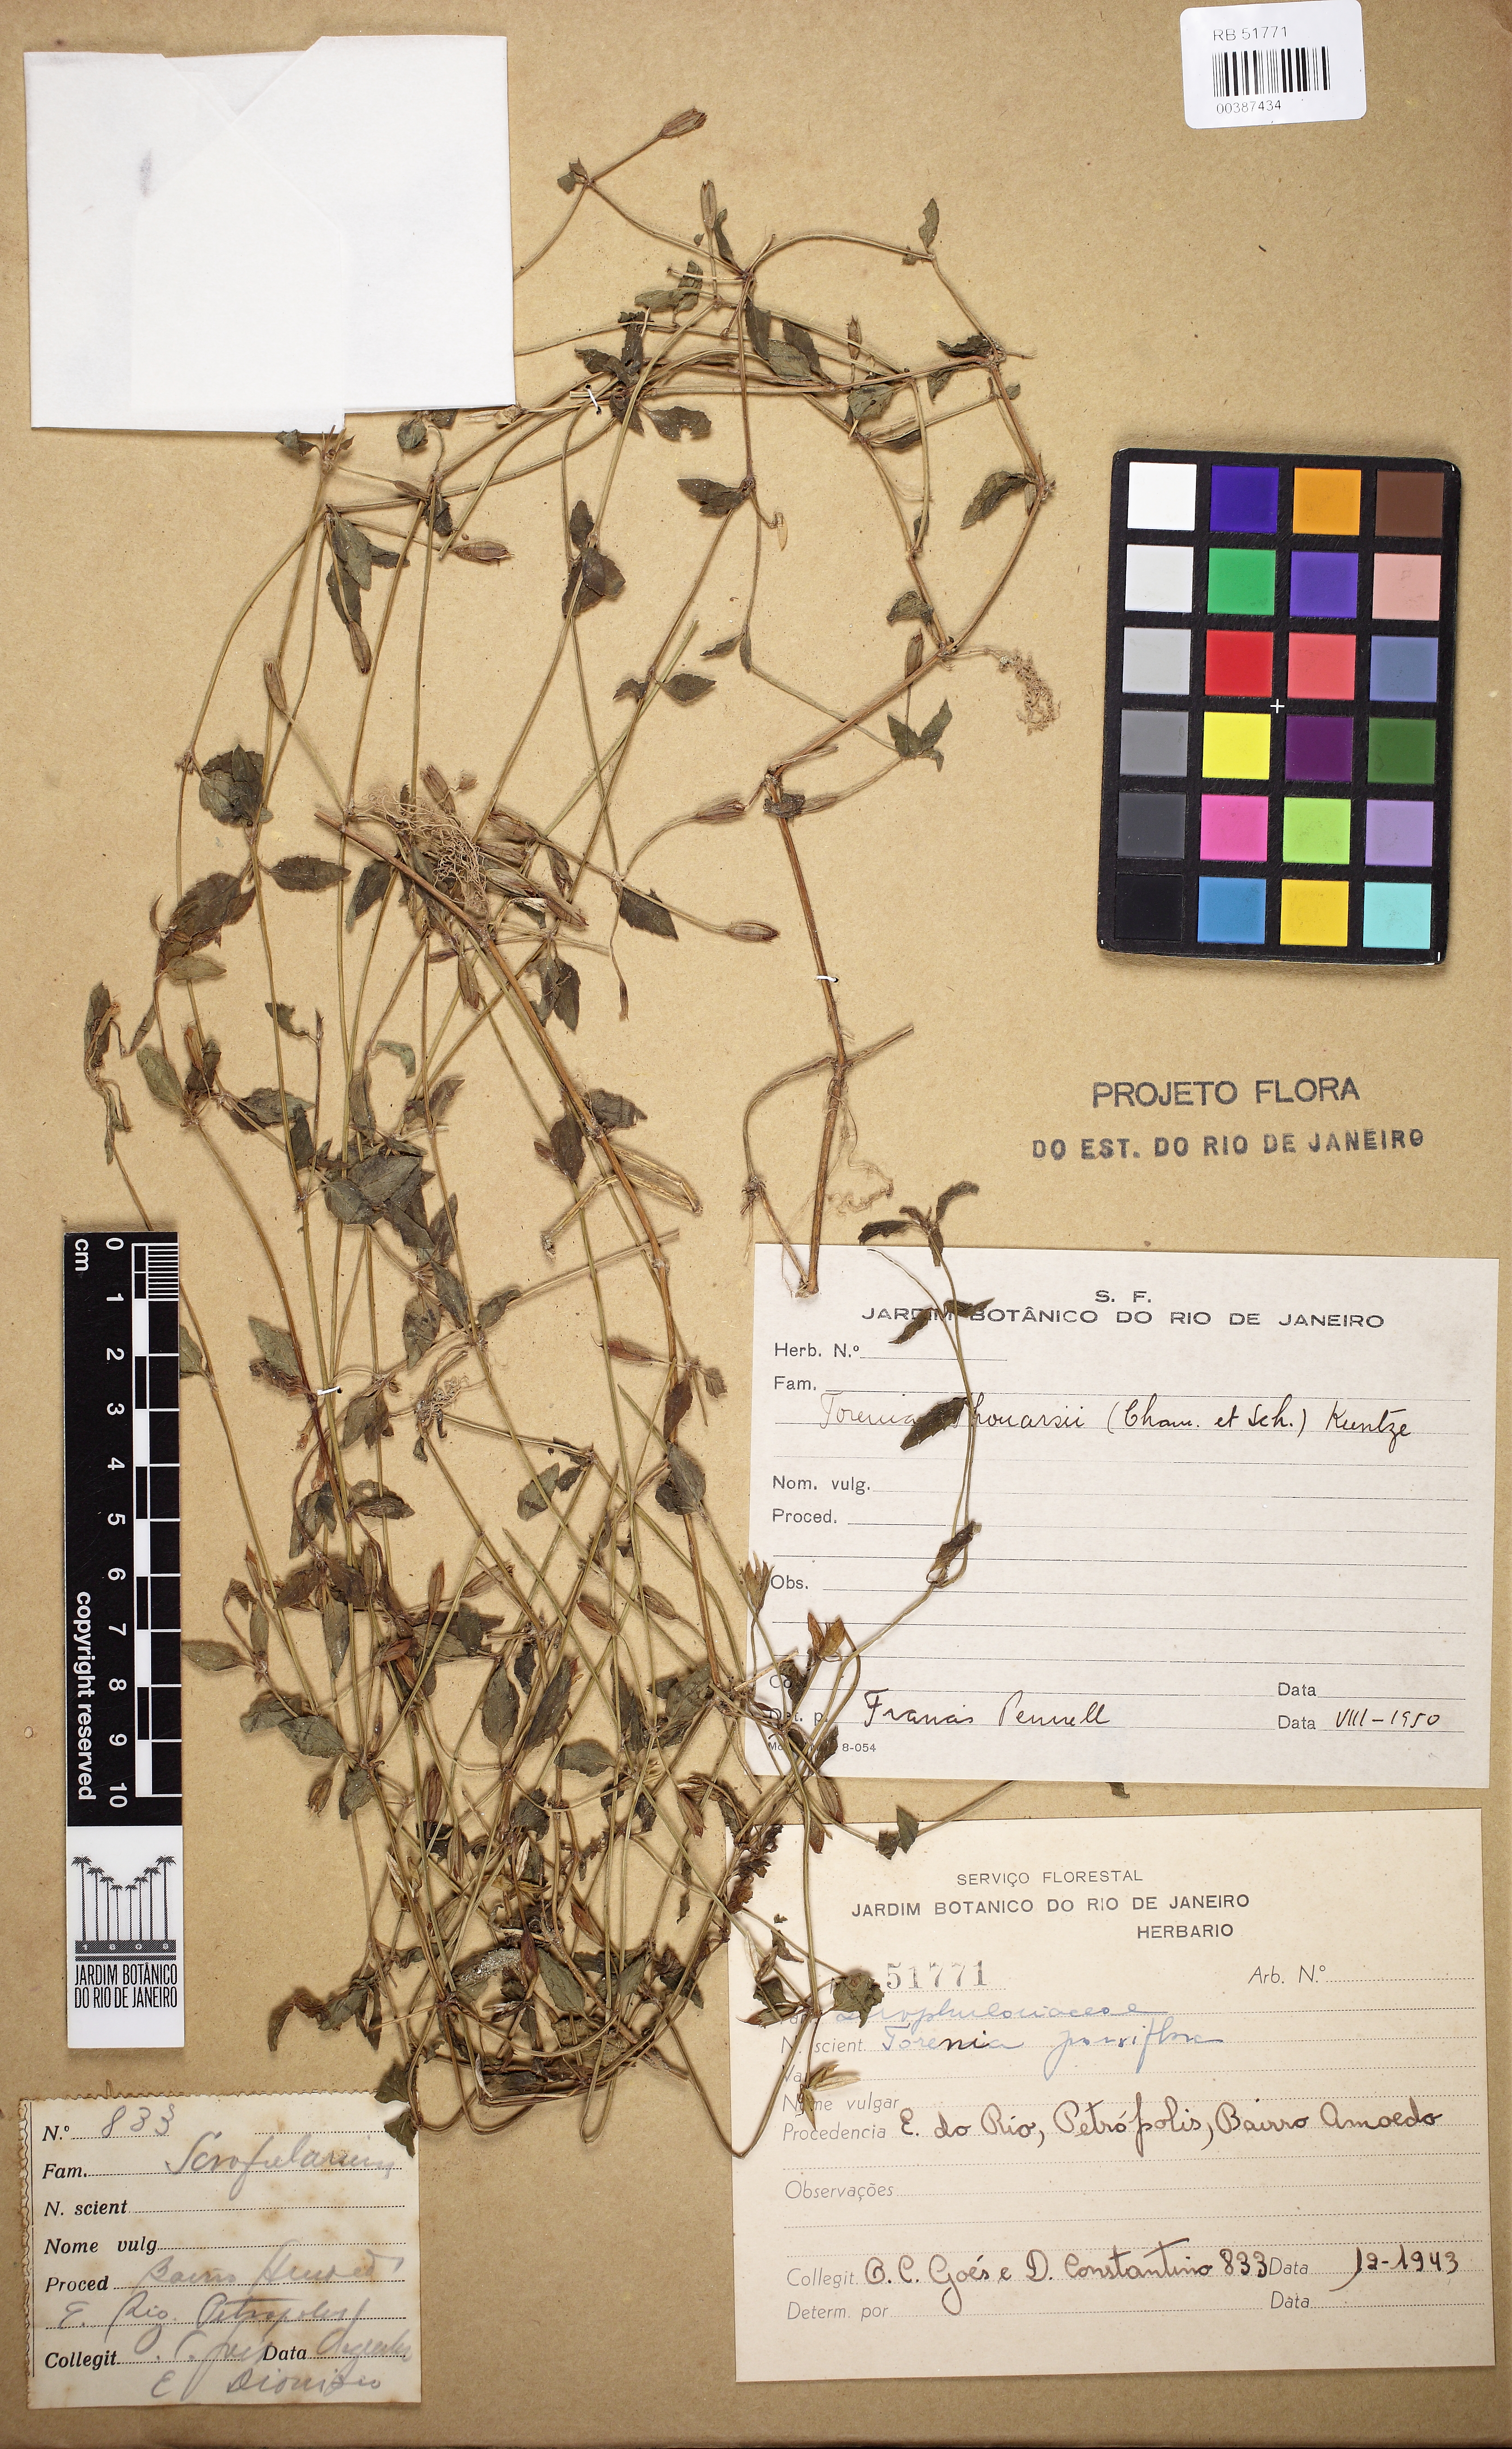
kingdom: Plantae
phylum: Tracheophyta
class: Magnoliopsida
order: Lamiales
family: Linderniaceae
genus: Torenia
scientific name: Torenia thouarsii
